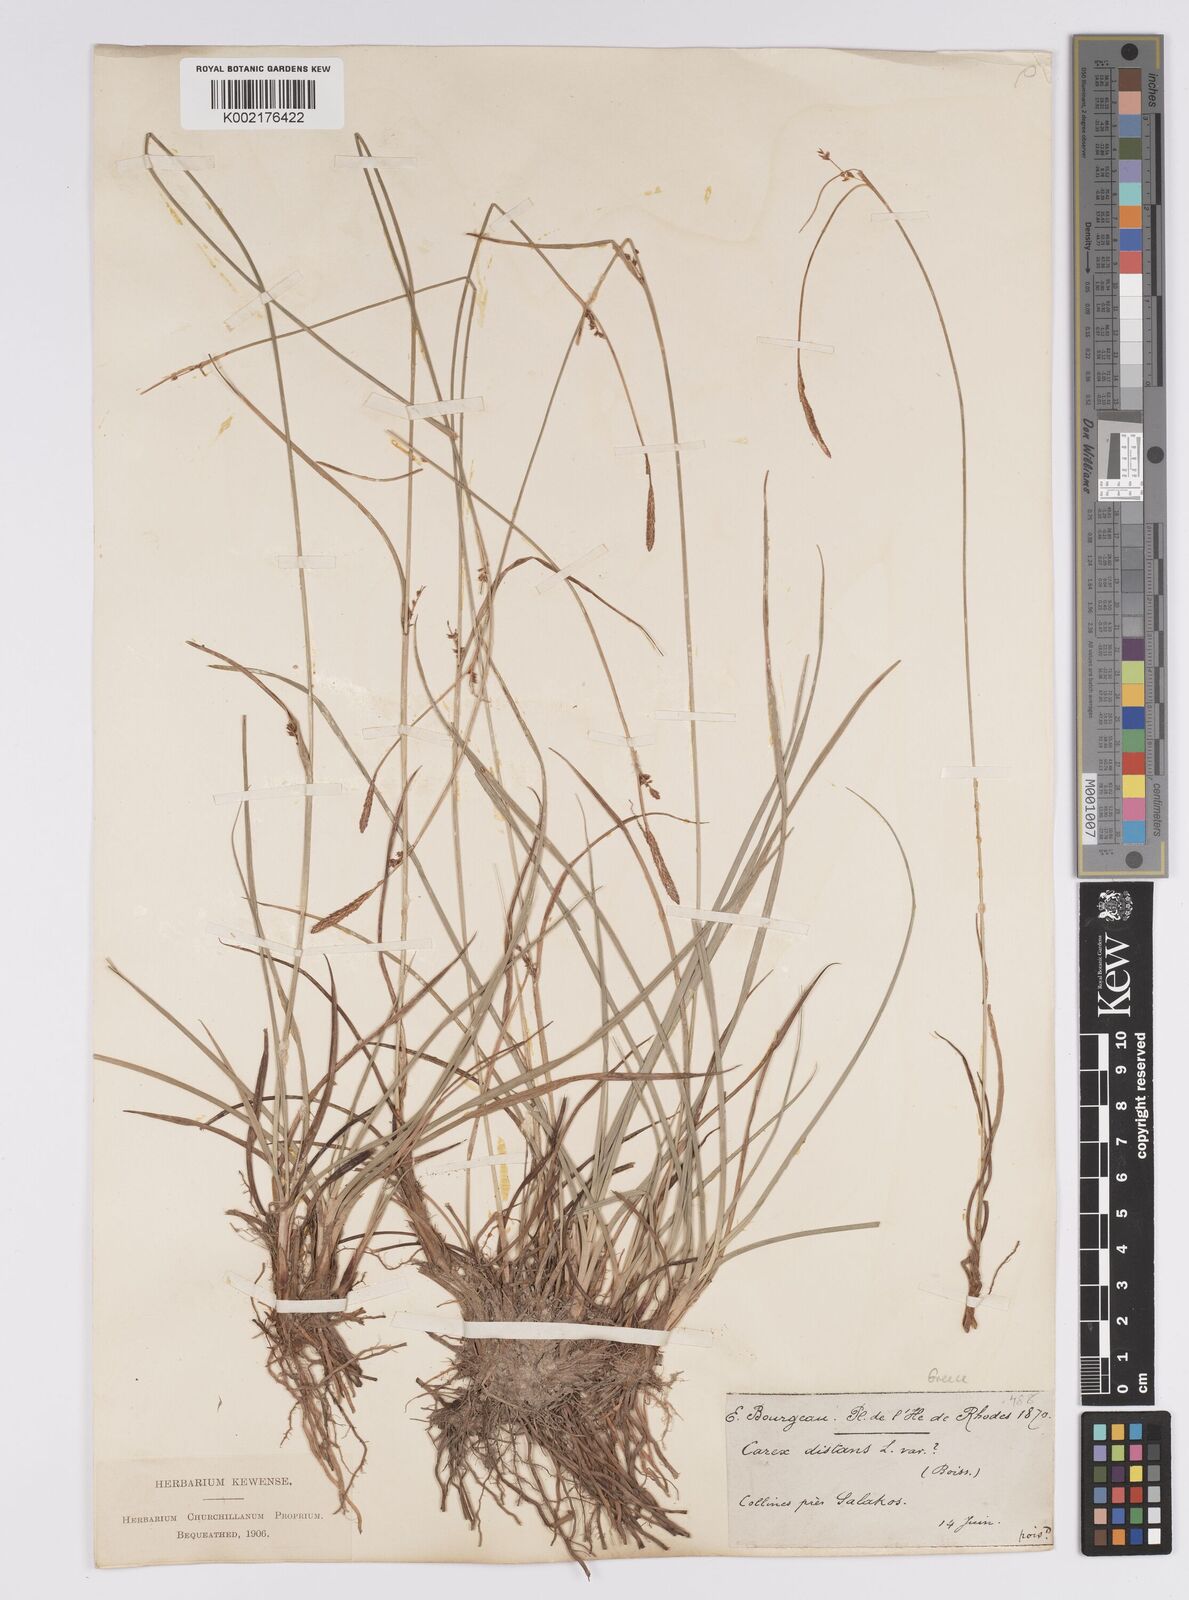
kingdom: Plantae
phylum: Tracheophyta
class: Liliopsida
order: Poales
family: Cyperaceae
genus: Carex
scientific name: Carex distans
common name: Distant sedge
